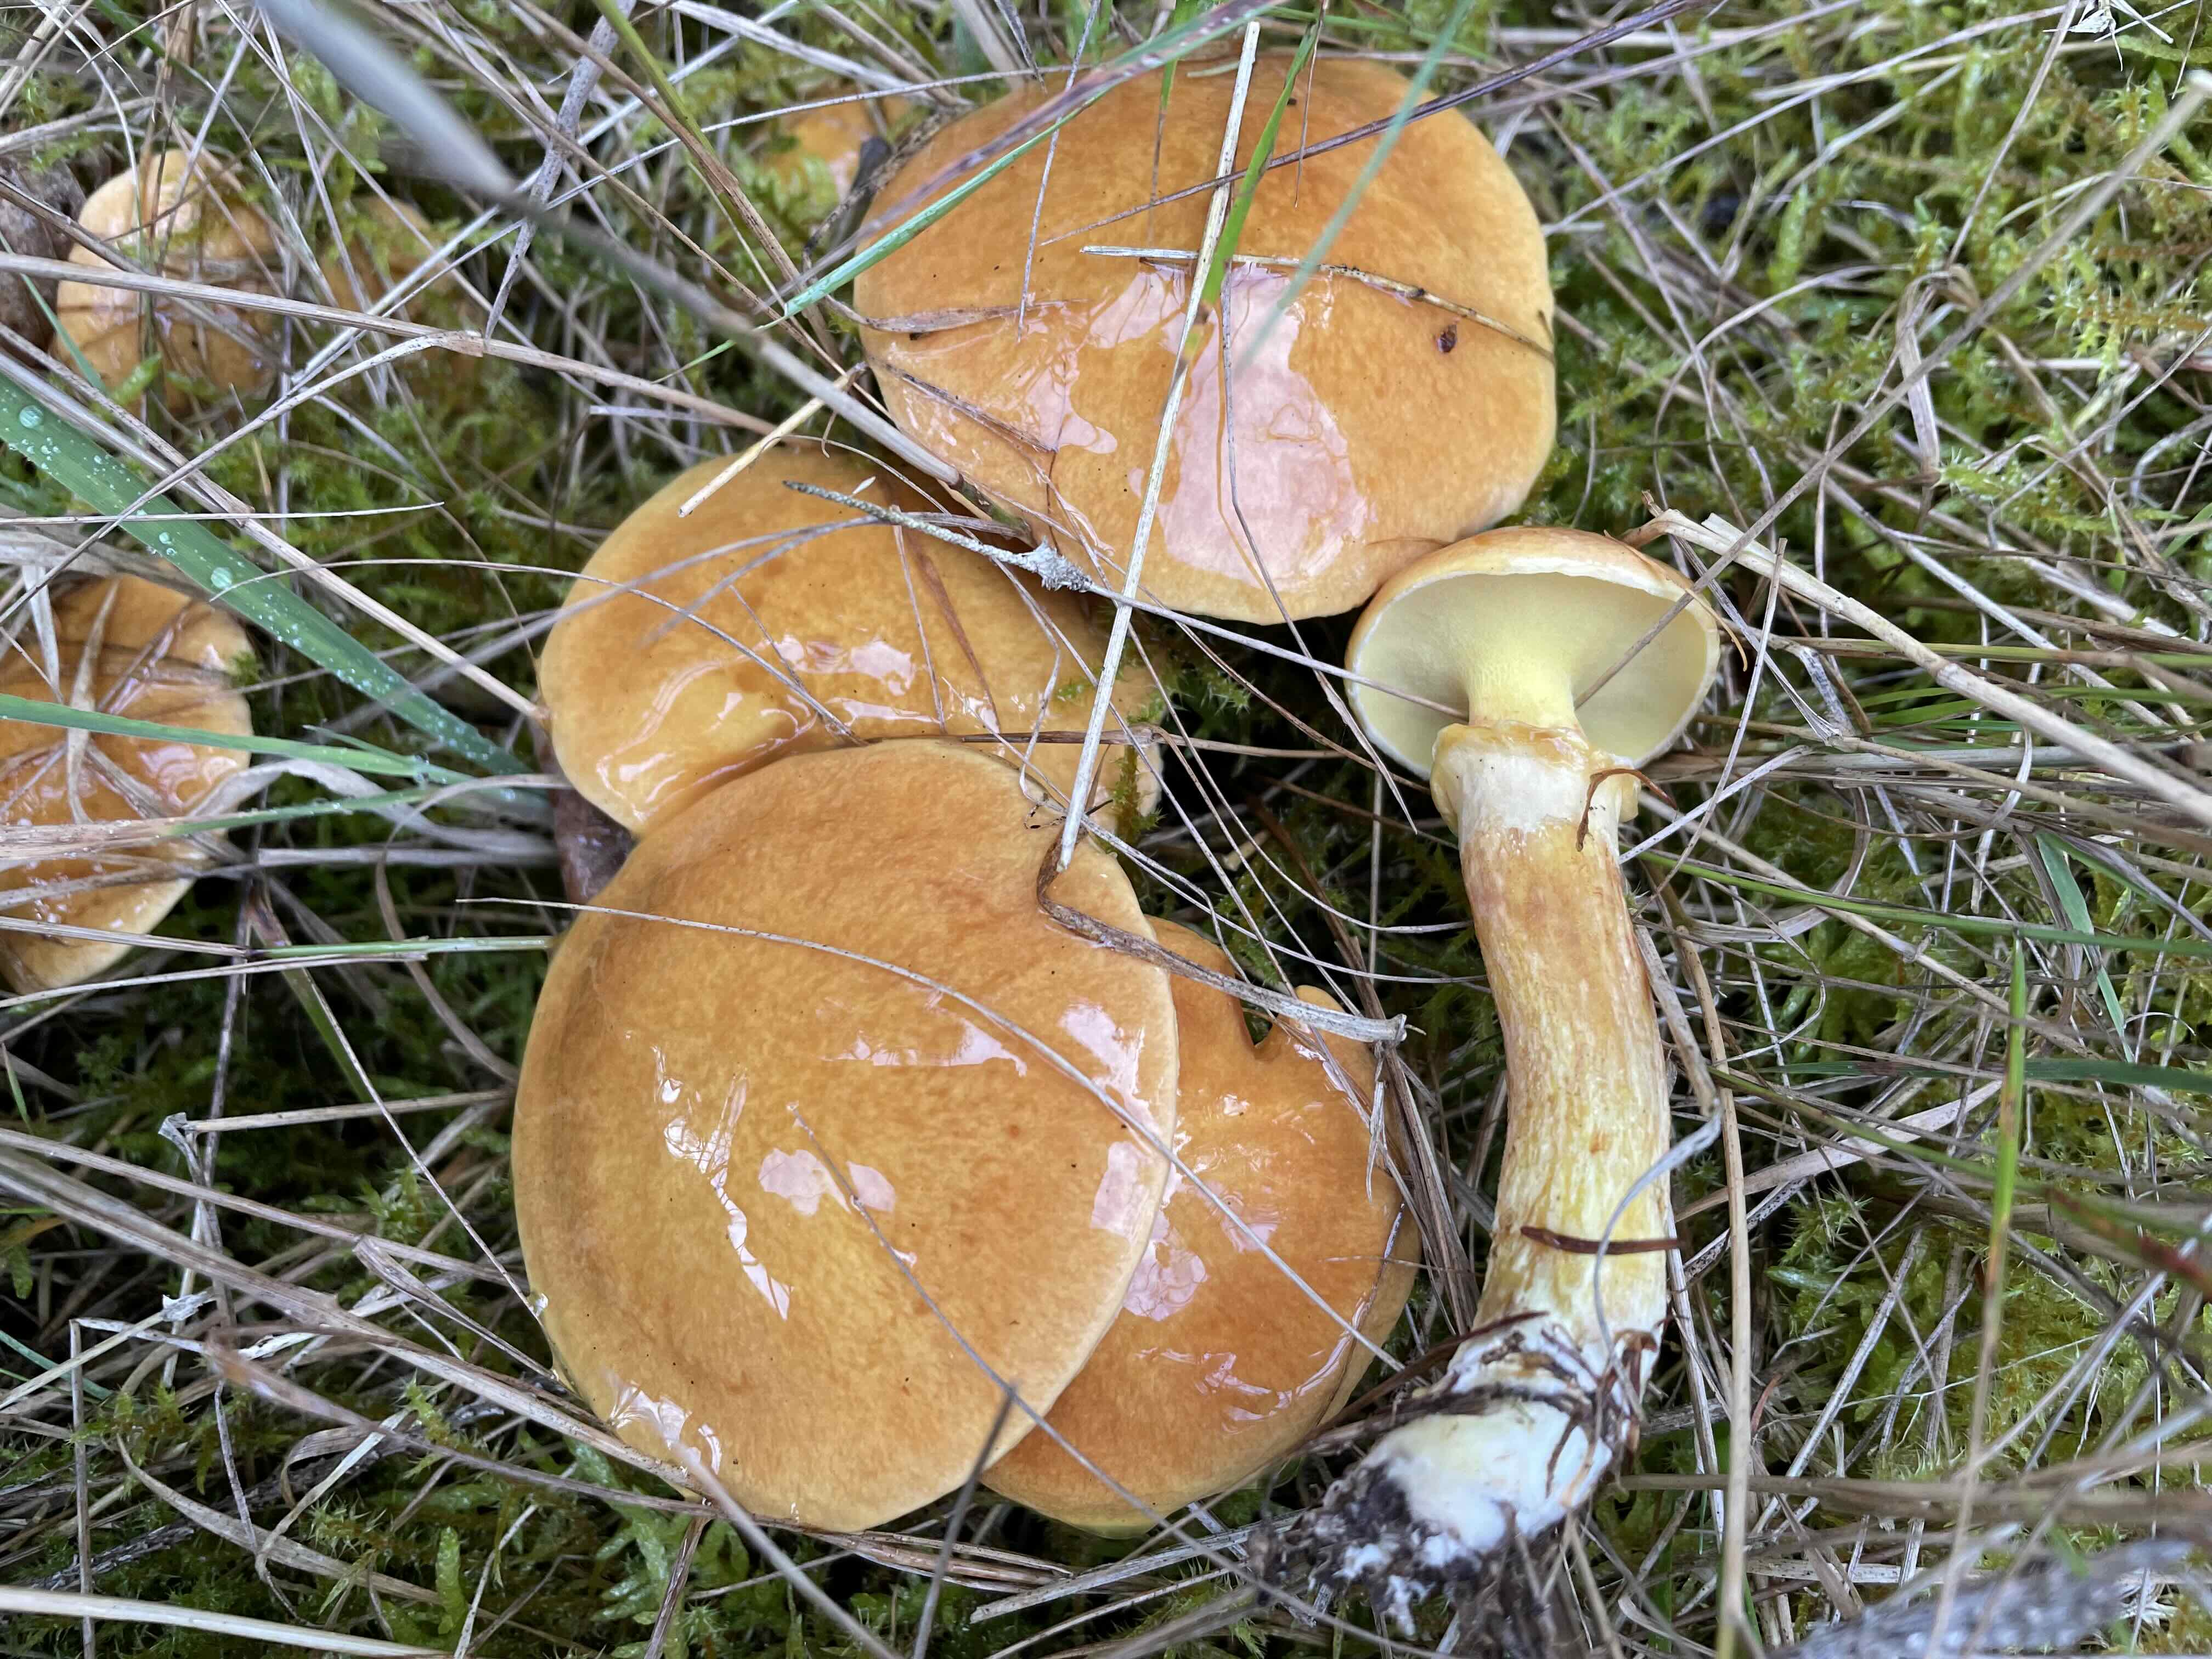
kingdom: Fungi
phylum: Basidiomycota
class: Agaricomycetes
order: Boletales
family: Suillaceae
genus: Suillus
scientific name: Suillus grevillei
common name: lærke-slimrørhat
